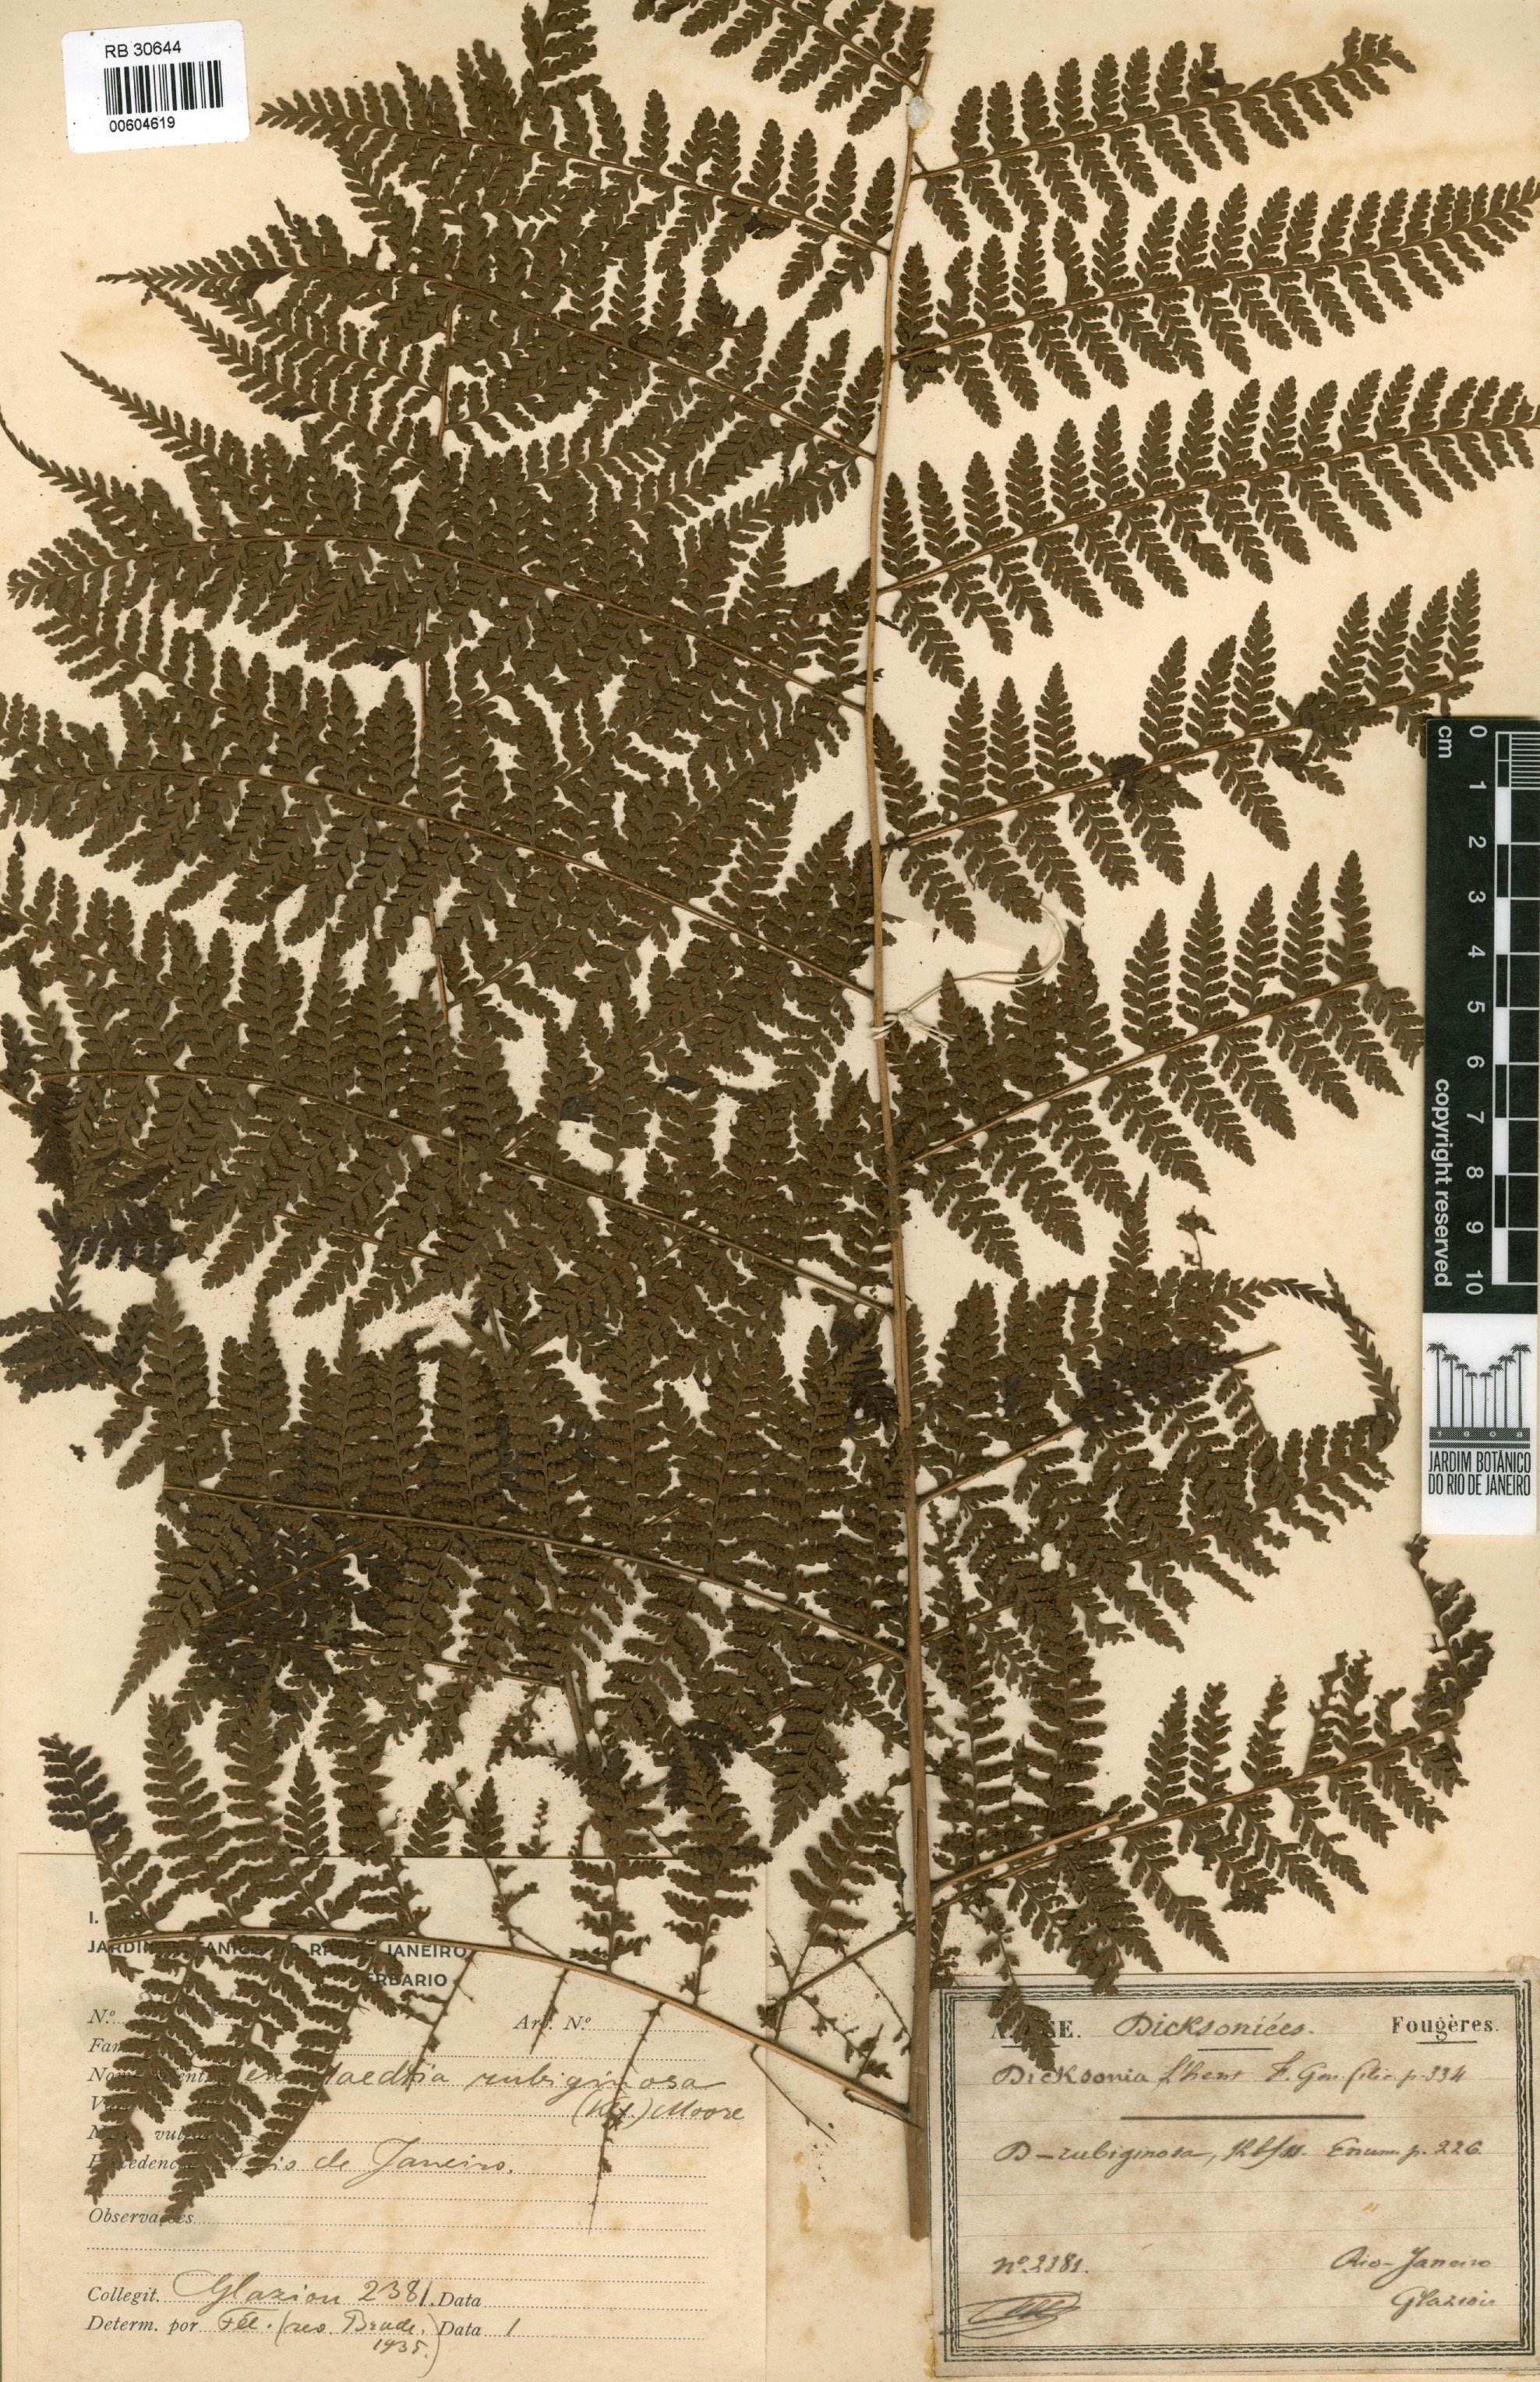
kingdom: Plantae
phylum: Tracheophyta
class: Polypodiopsida
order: Polypodiales
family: Dennstaedtiaceae
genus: Dennstaedtia
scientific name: Dennstaedtia cornuta
